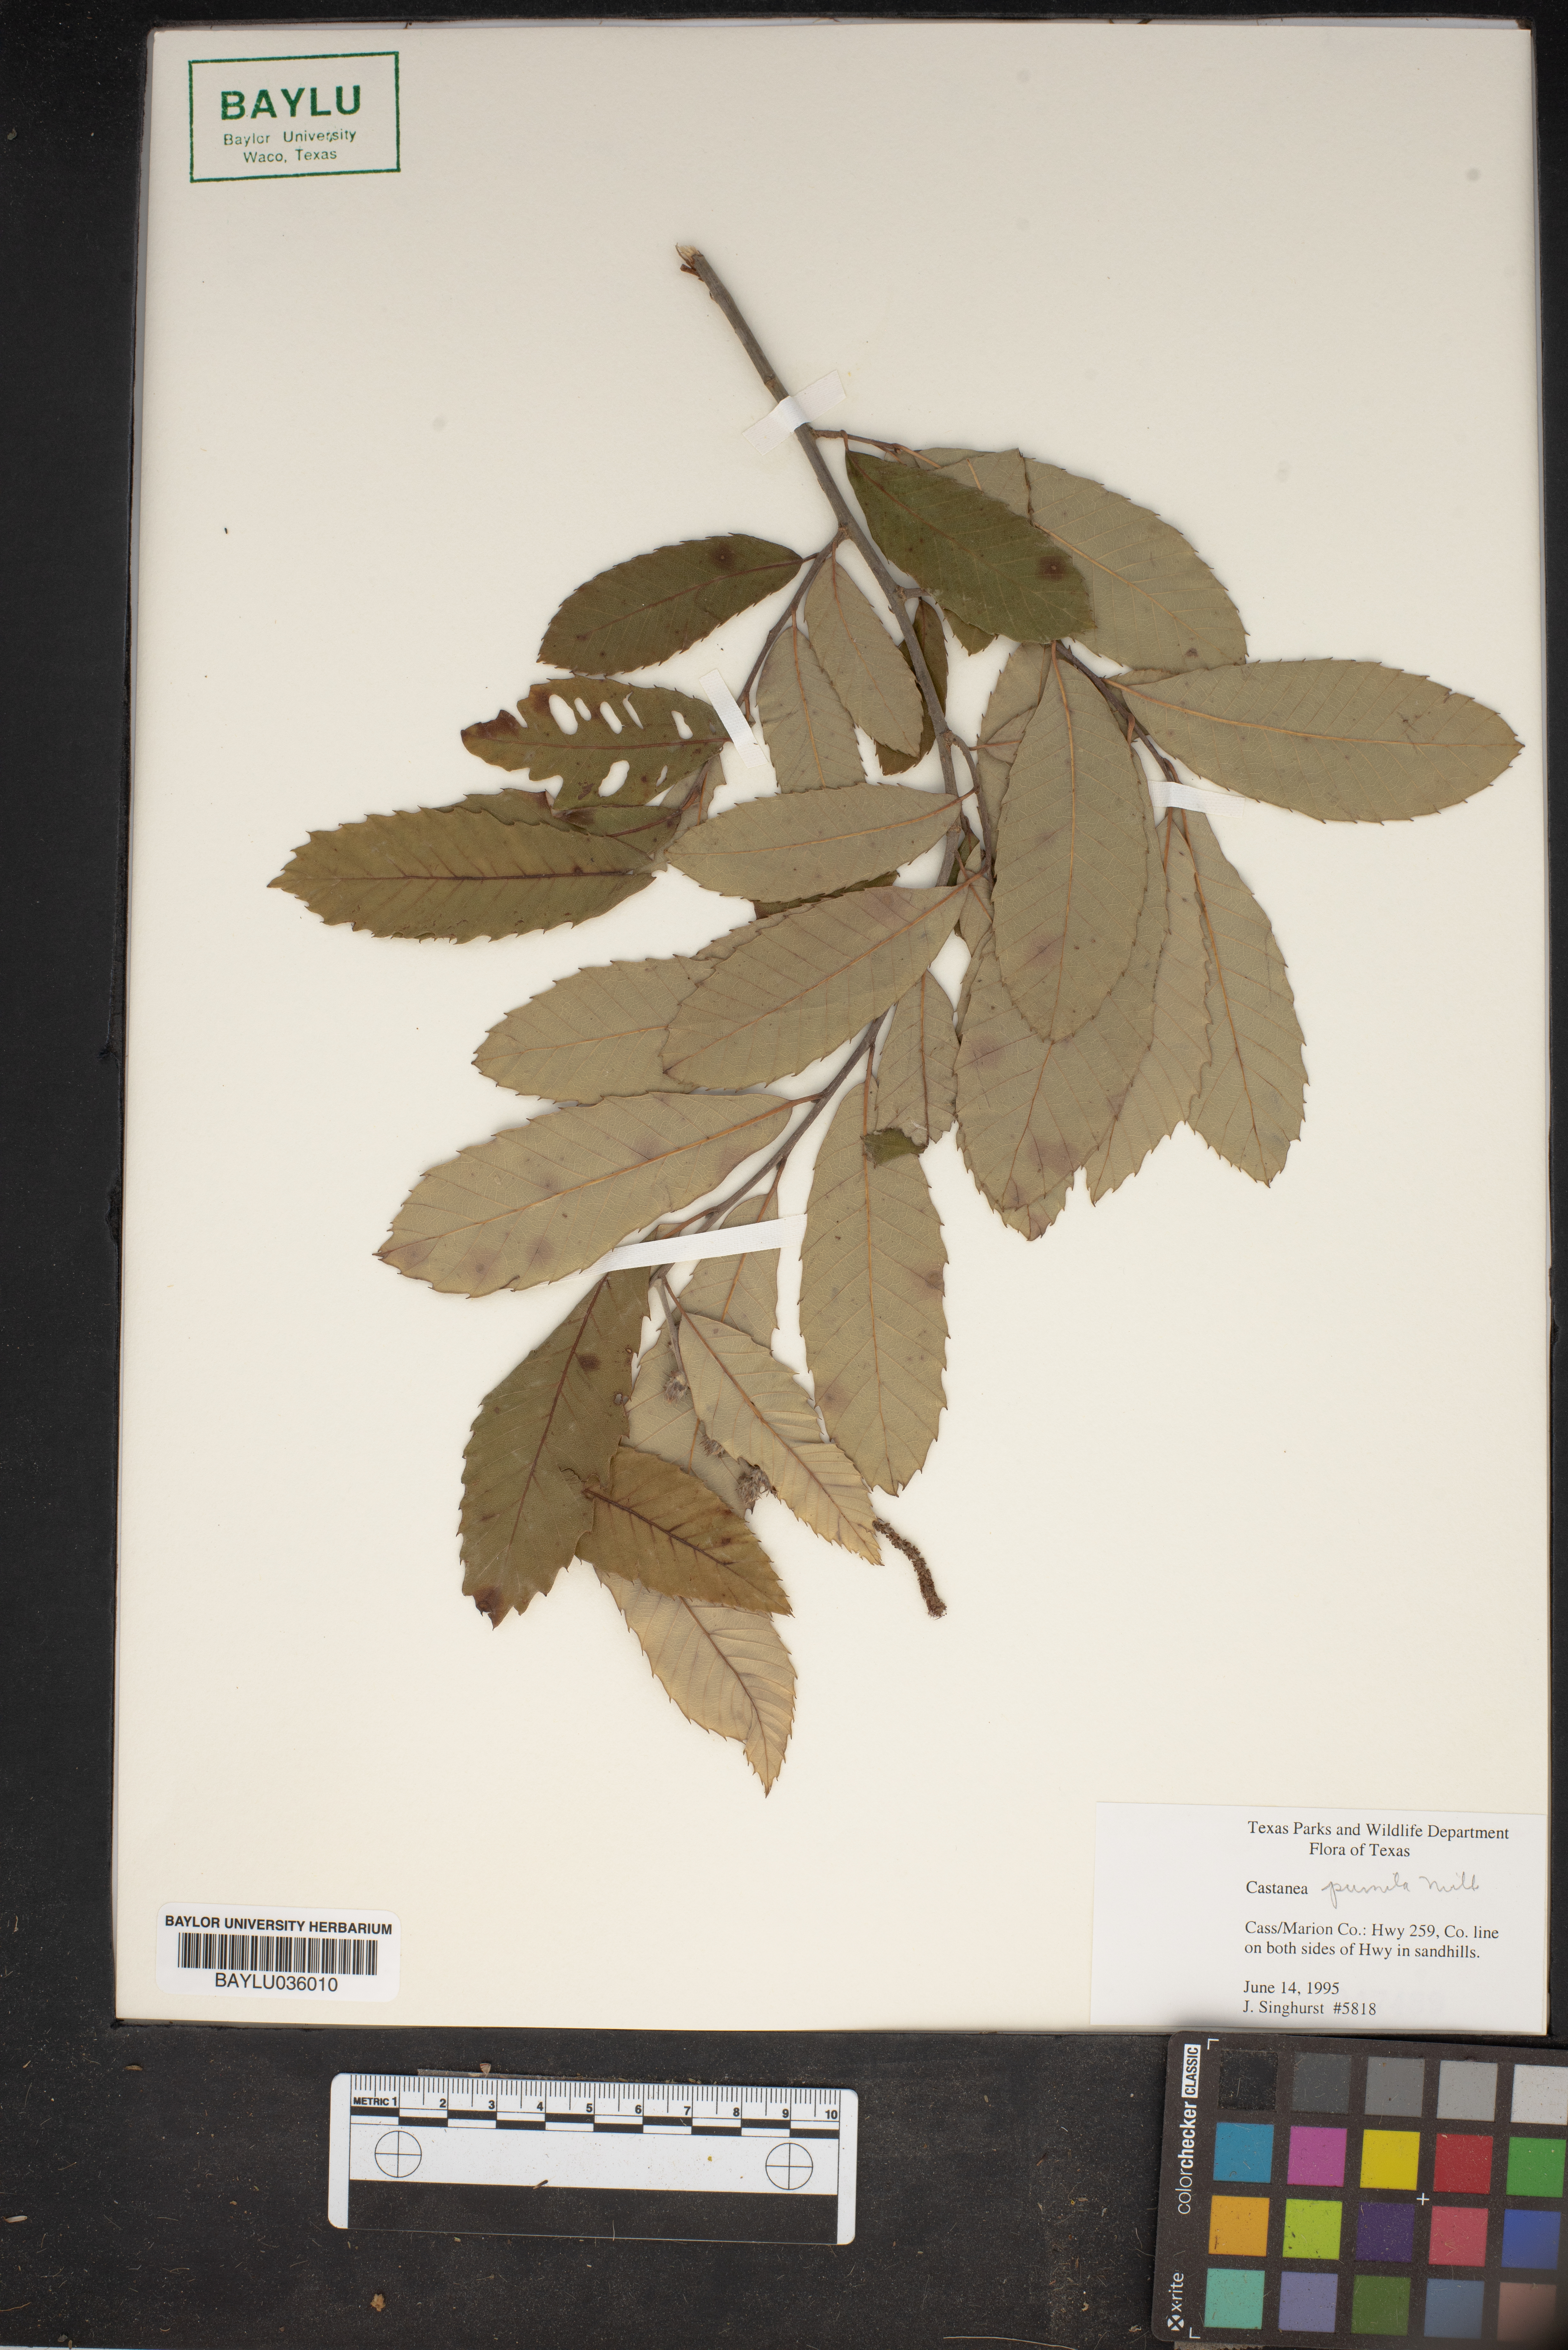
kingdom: Plantae
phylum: Tracheophyta
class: Magnoliopsida
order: Fagales
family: Fagaceae
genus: Castanea
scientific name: Castanea pumila
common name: Chinkapin
